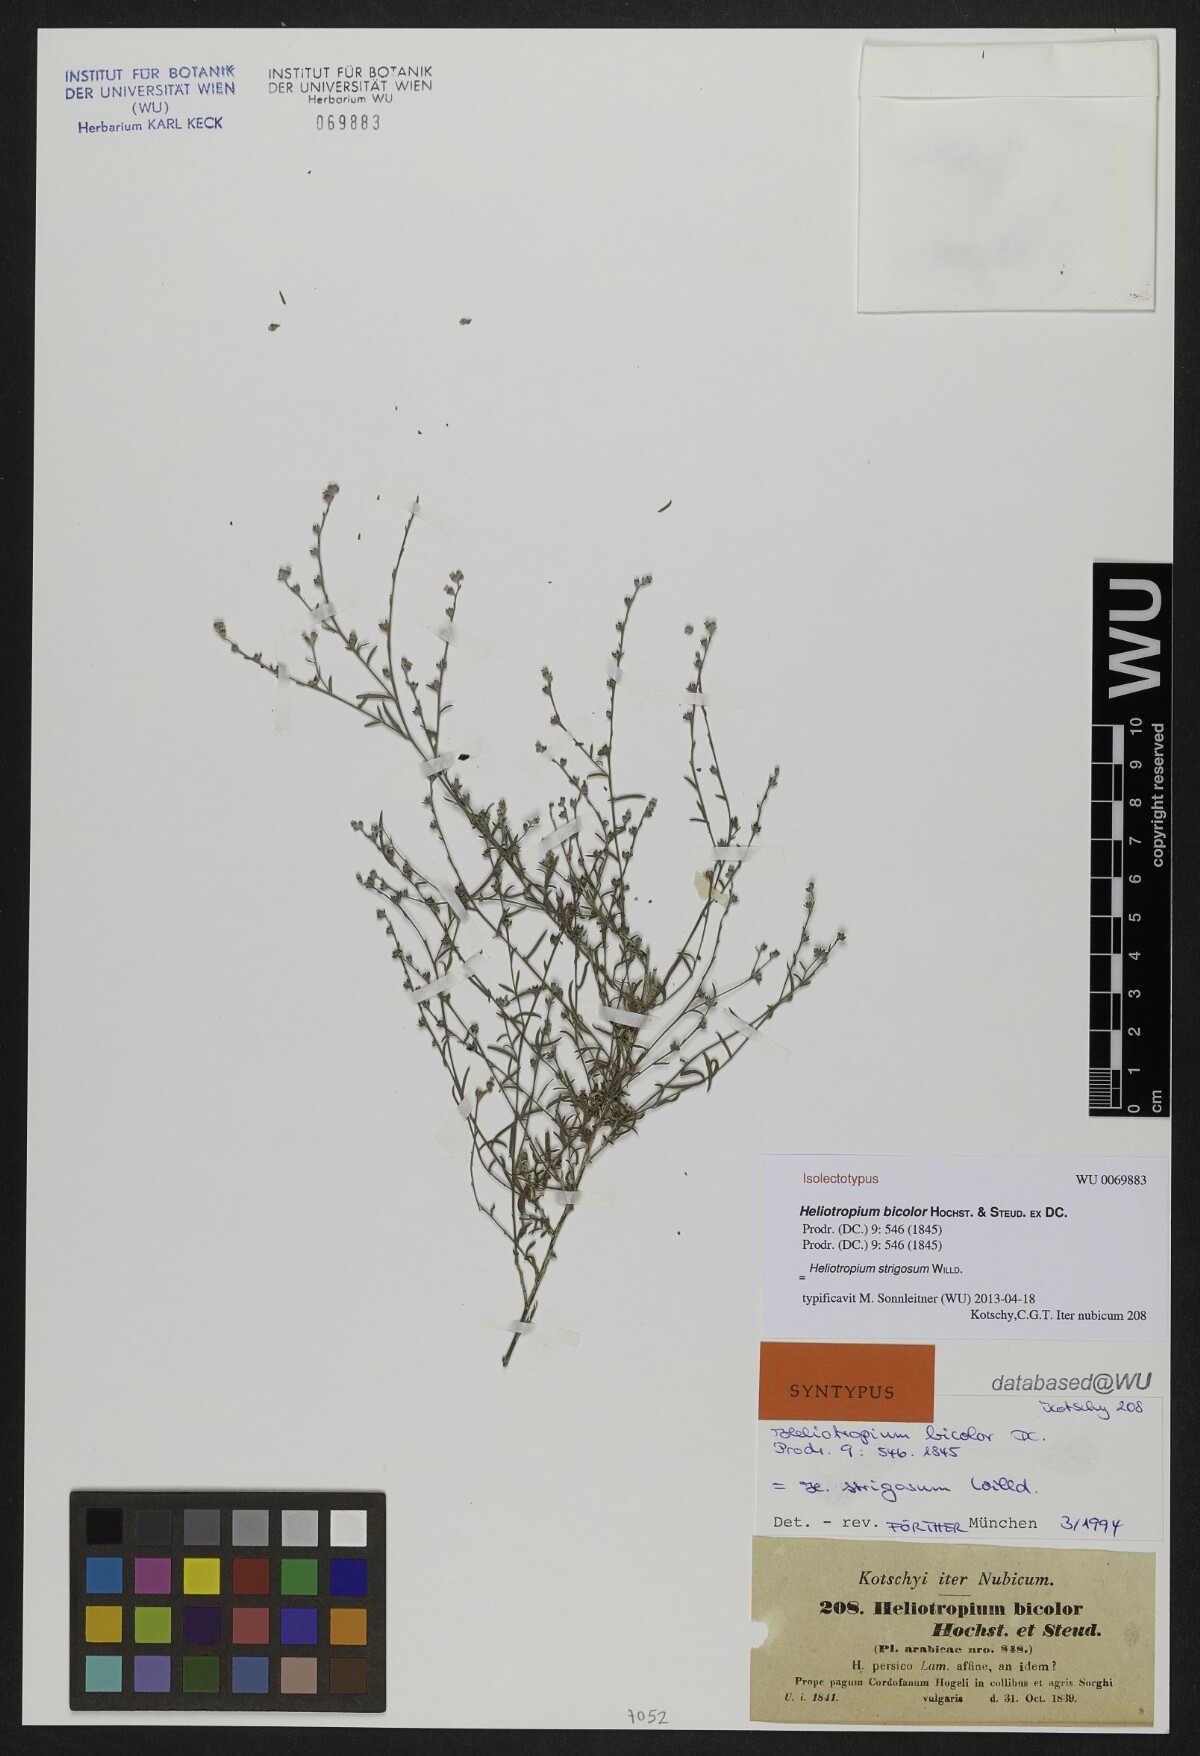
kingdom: Plantae
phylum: Tracheophyta
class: Magnoliopsida
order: Boraginales
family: Heliotropiaceae
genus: Euploca
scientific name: Euploca strigosa
